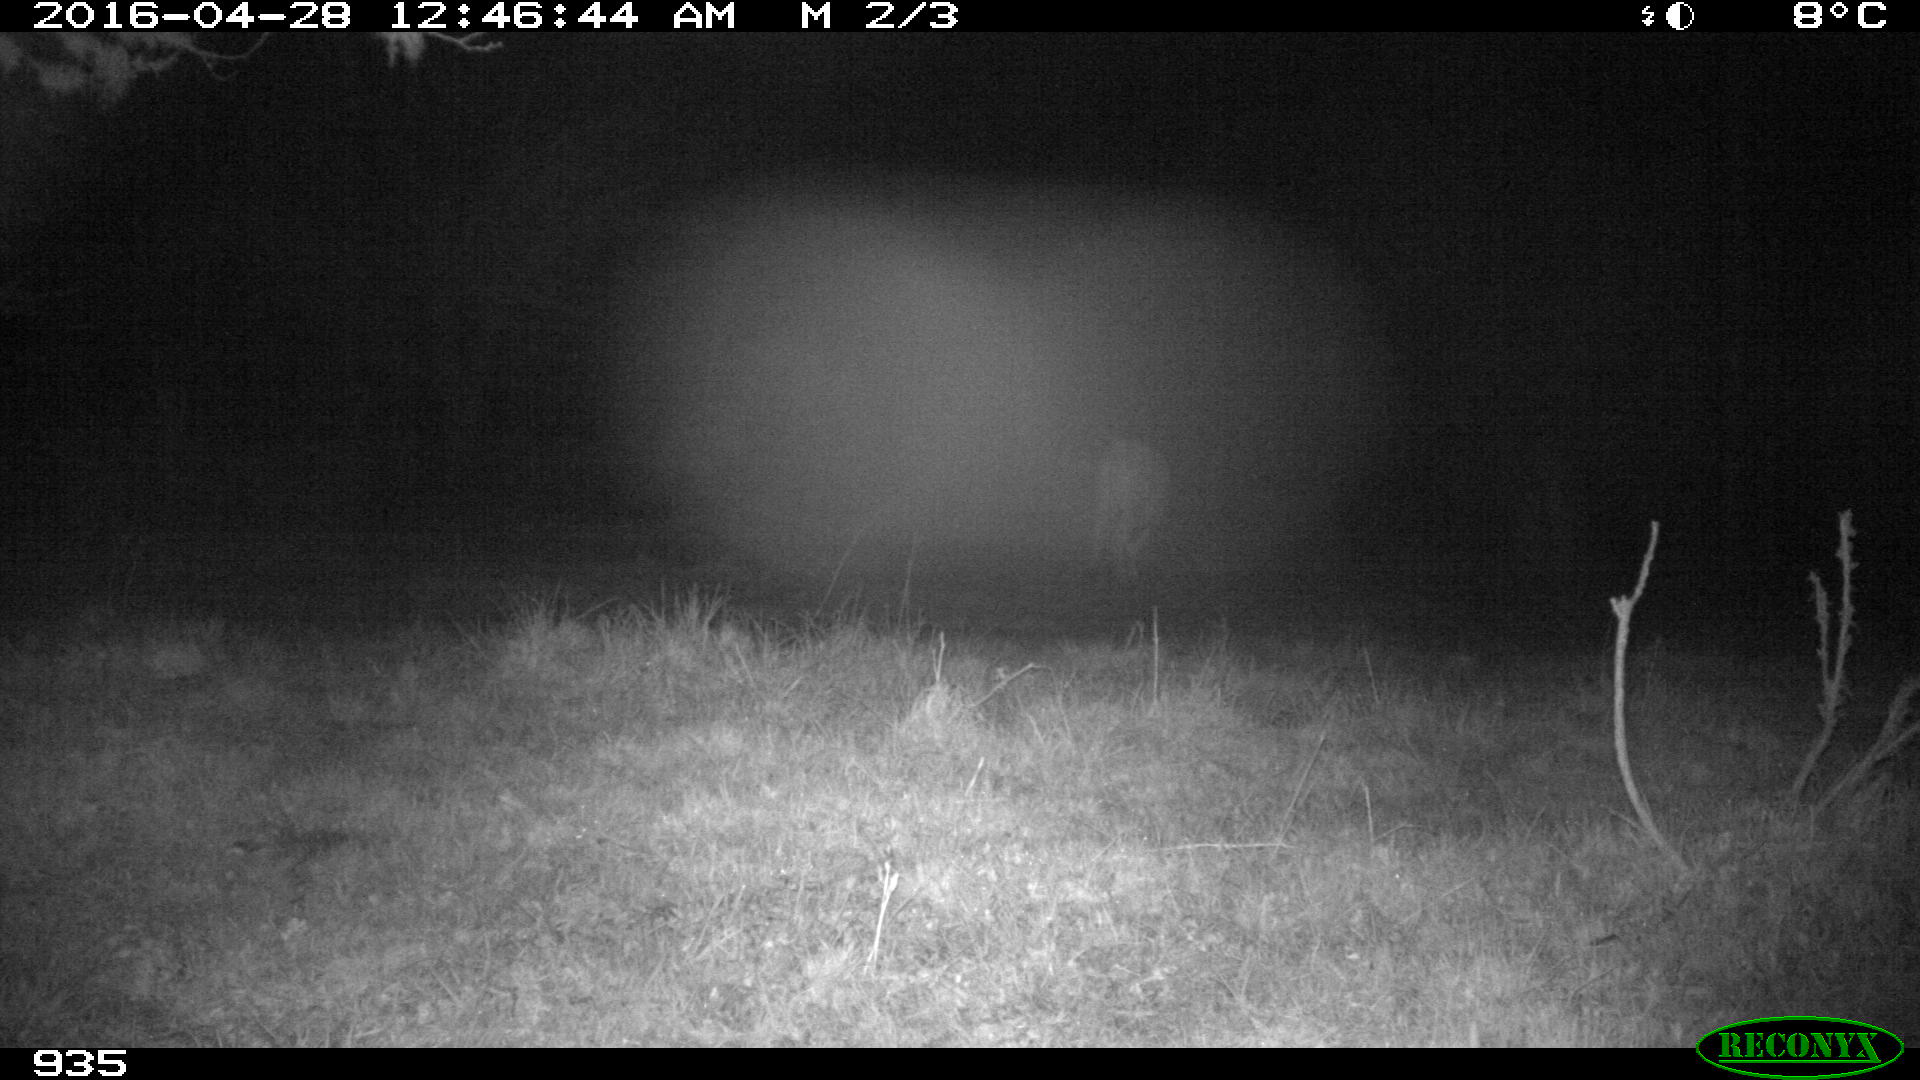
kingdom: Animalia
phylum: Chordata
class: Mammalia
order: Artiodactyla
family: Bovidae
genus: Bos
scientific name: Bos taurus
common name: Domesticated cattle
